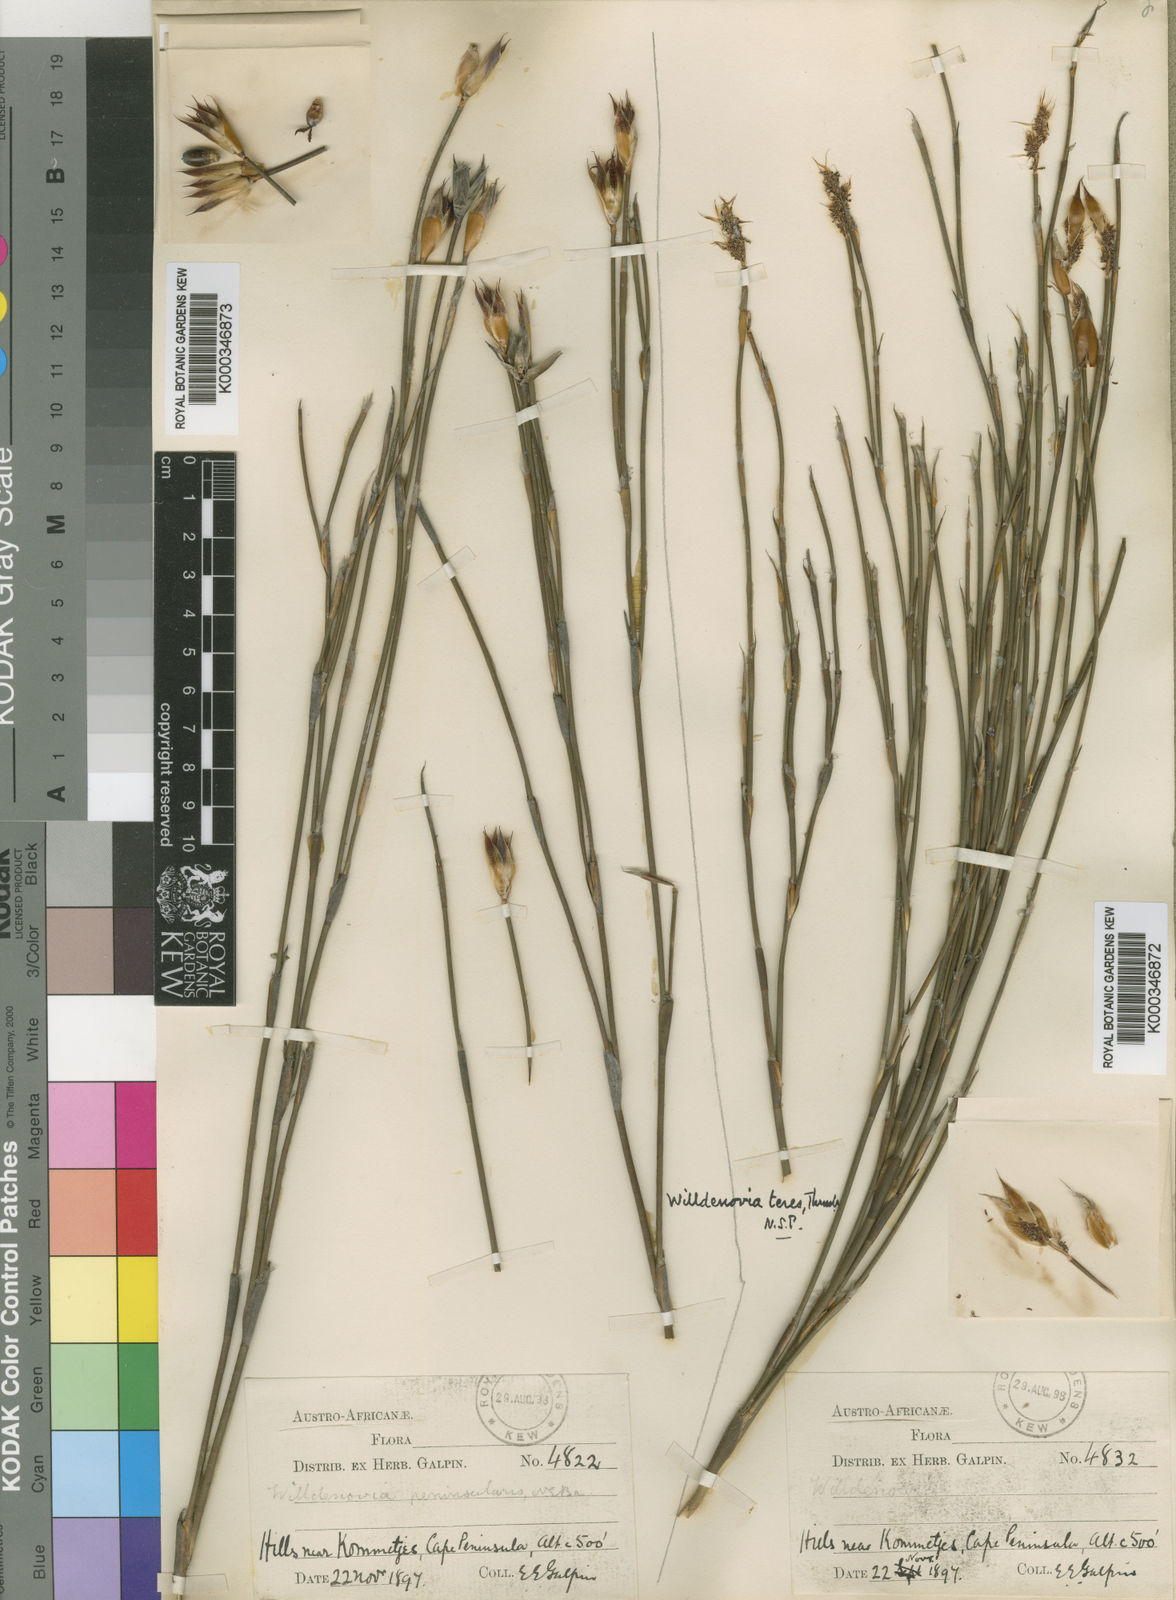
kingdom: Plantae
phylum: Tracheophyta
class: Liliopsida
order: Poales
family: Restionaceae
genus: Willdenowia
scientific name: Willdenowia teres
